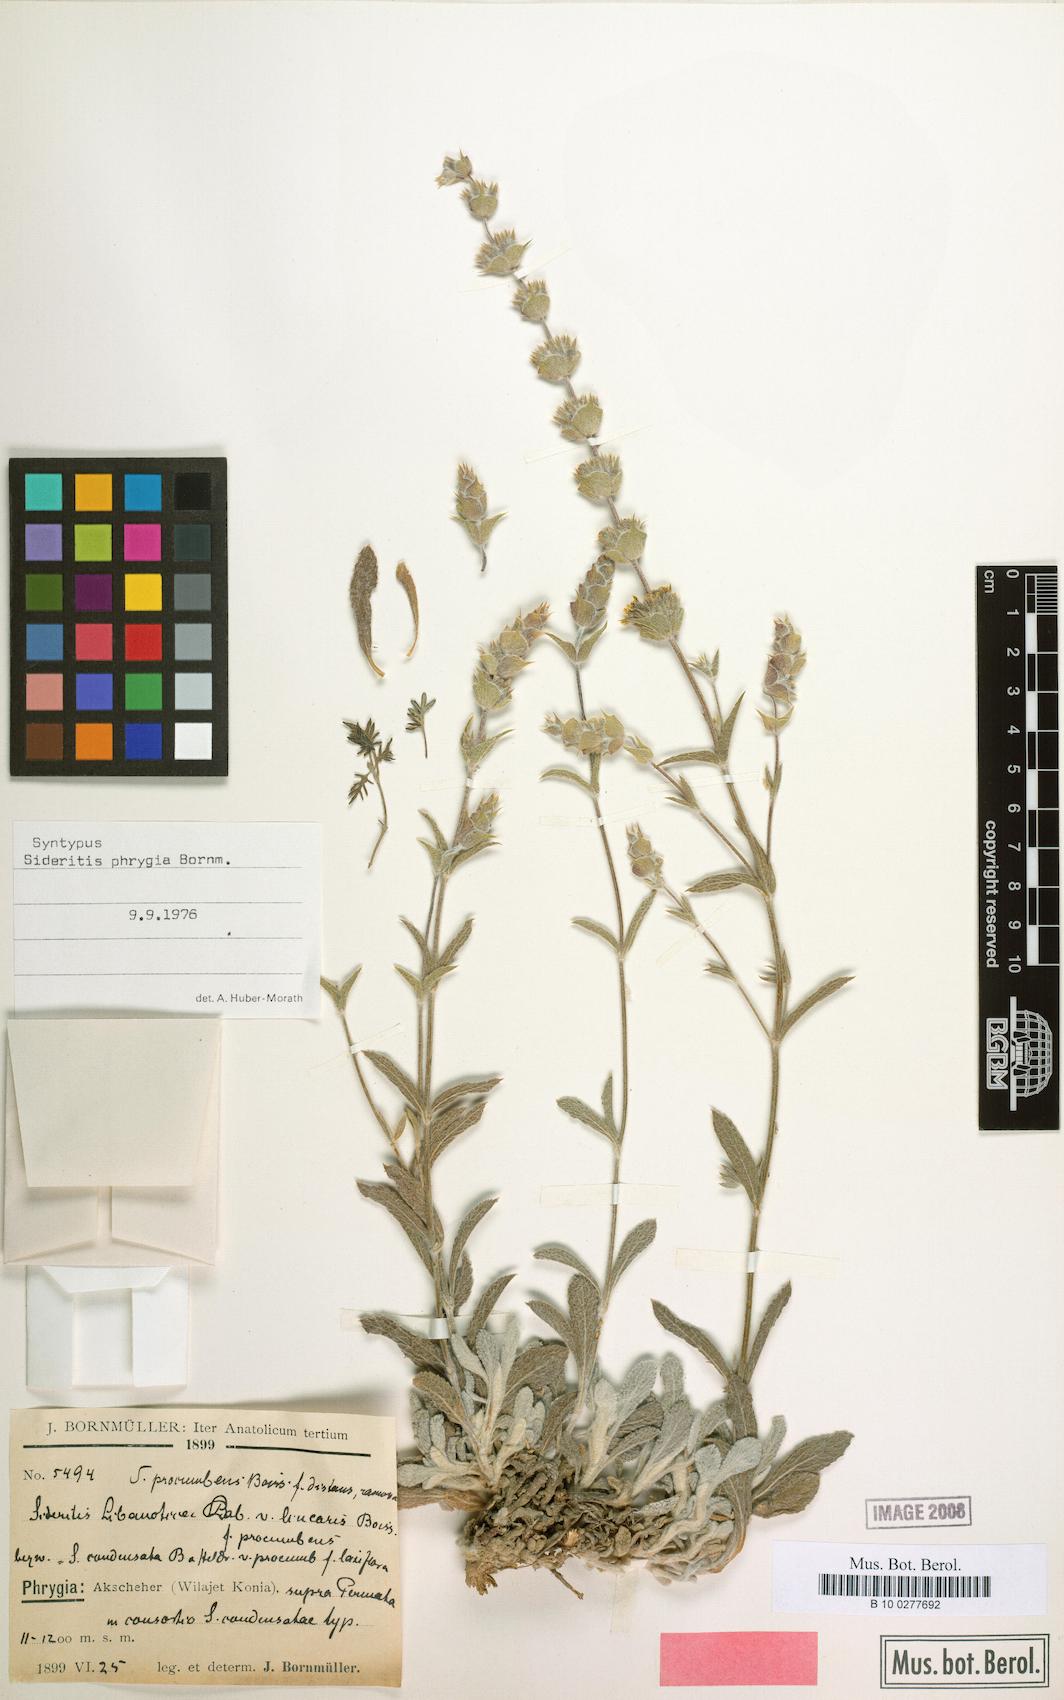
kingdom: Plantae
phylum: Tracheophyta
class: Magnoliopsida
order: Lamiales
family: Lamiaceae
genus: Sideritis
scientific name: Sideritis phrygia
